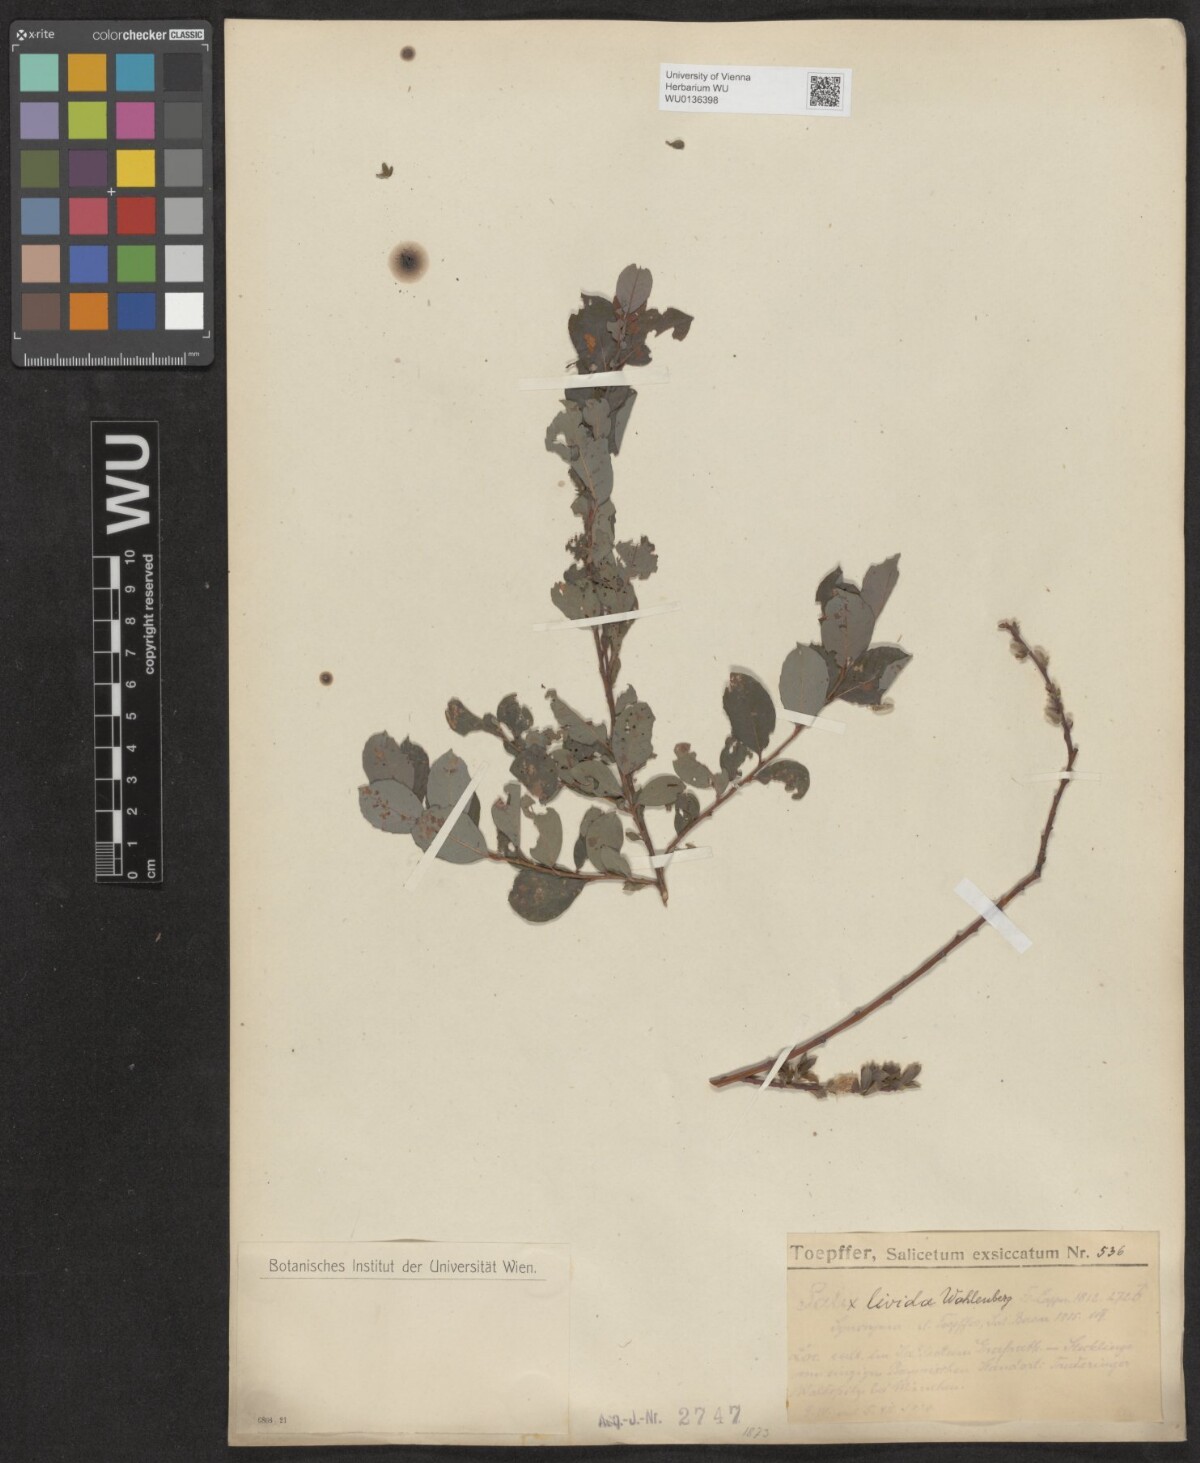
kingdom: Plantae
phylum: Tracheophyta
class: Magnoliopsida
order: Malpighiales
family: Salicaceae
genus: Salix
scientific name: Salix lanata
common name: Woolly willow
